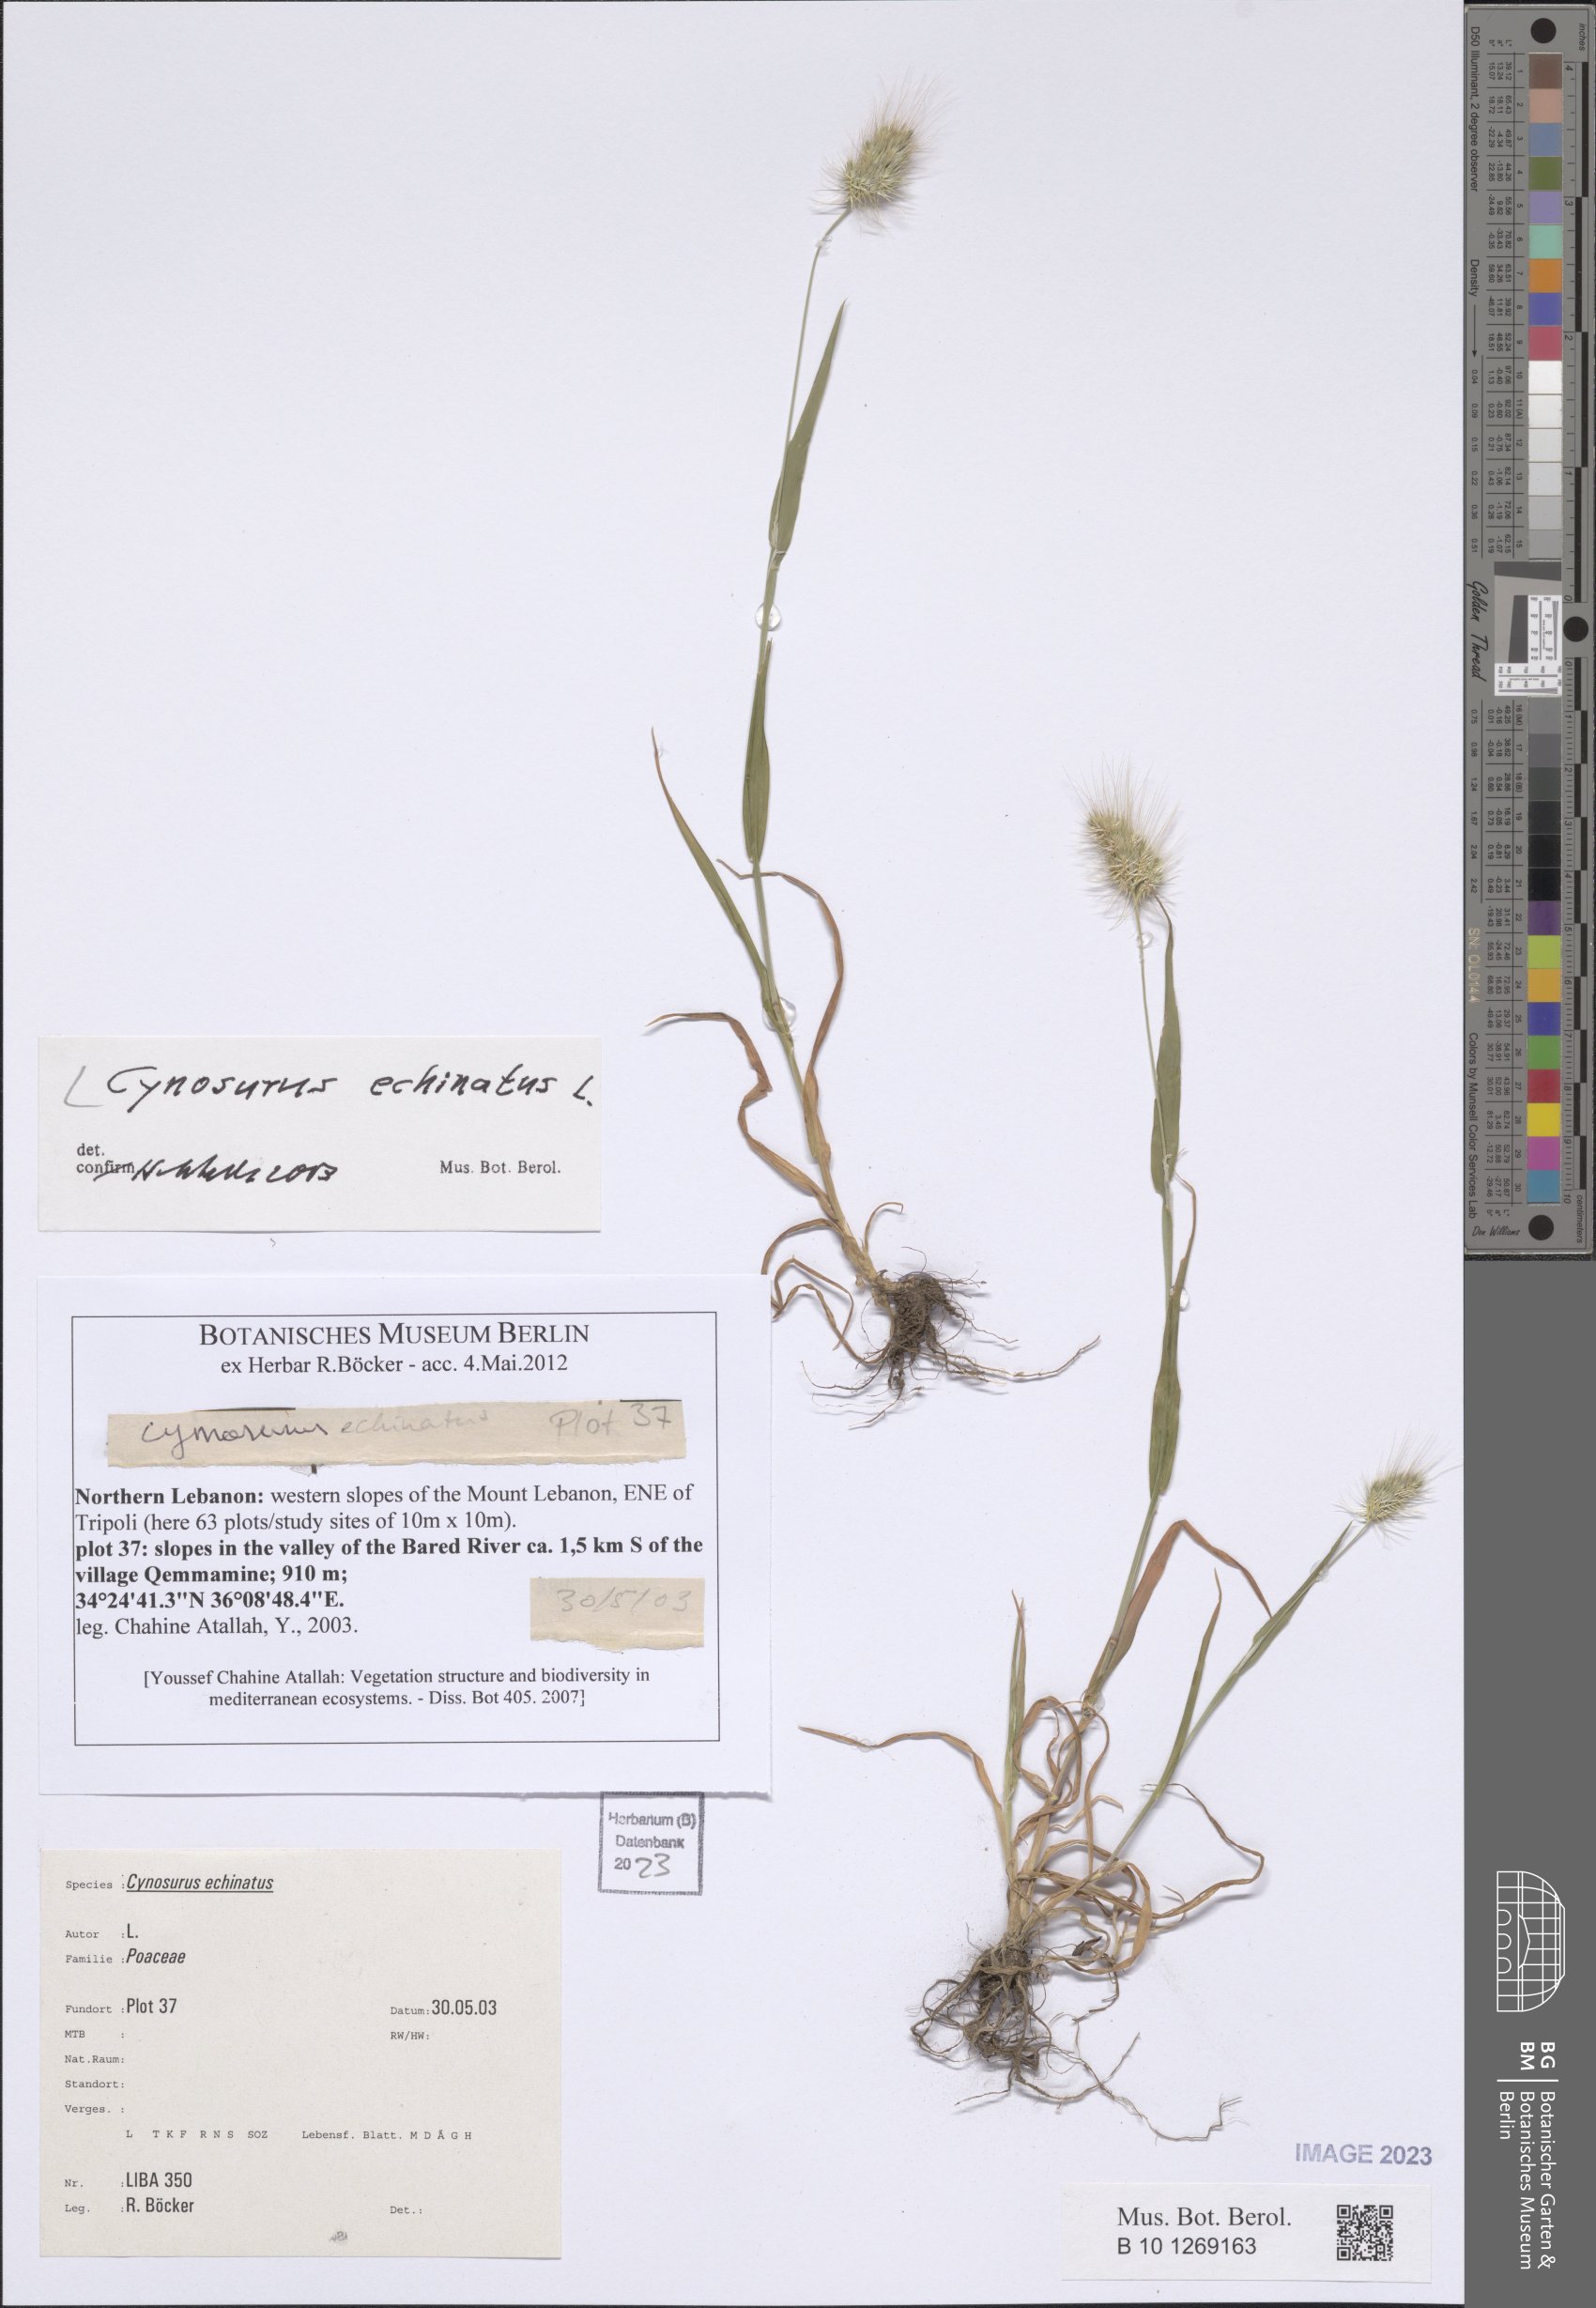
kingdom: Plantae
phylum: Tracheophyta
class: Liliopsida
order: Poales
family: Poaceae
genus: Cynosurus
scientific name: Cynosurus echinatus
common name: Rough dog's-tail
